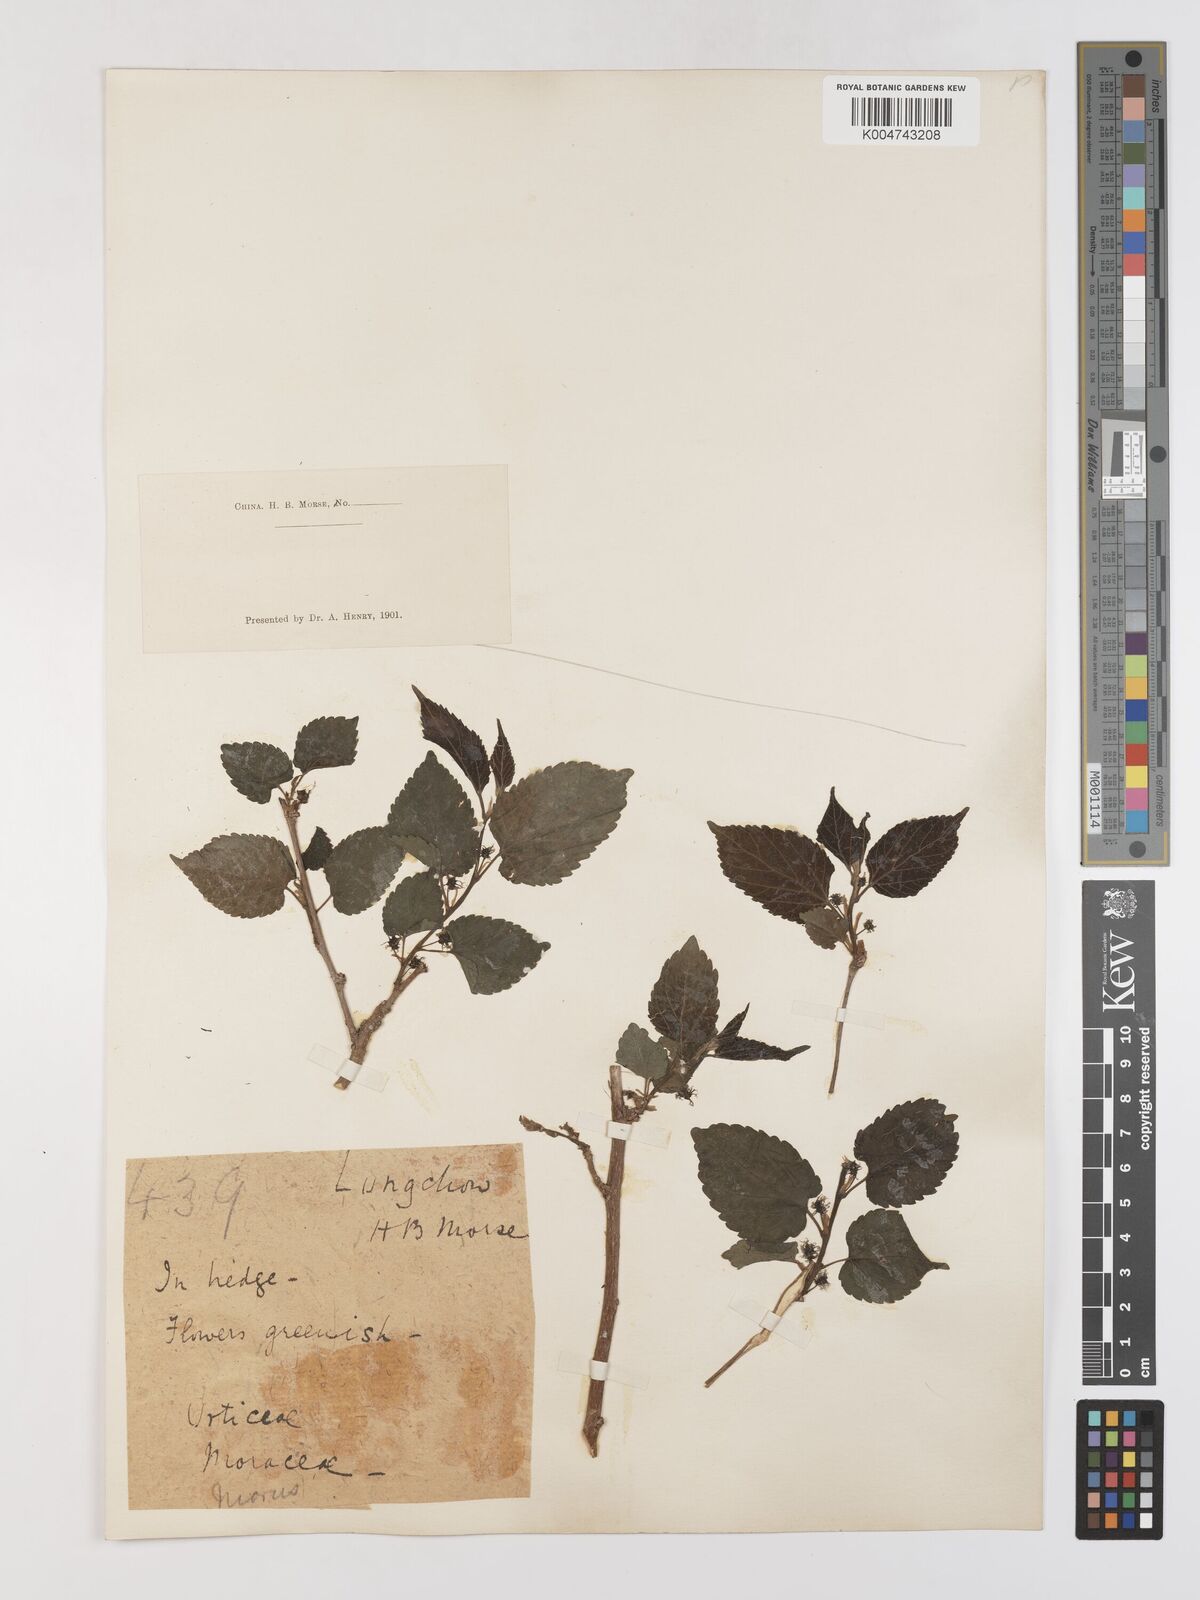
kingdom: Plantae
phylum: Tracheophyta
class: Magnoliopsida
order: Rosales
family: Moraceae
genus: Morus
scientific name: Morus indica
